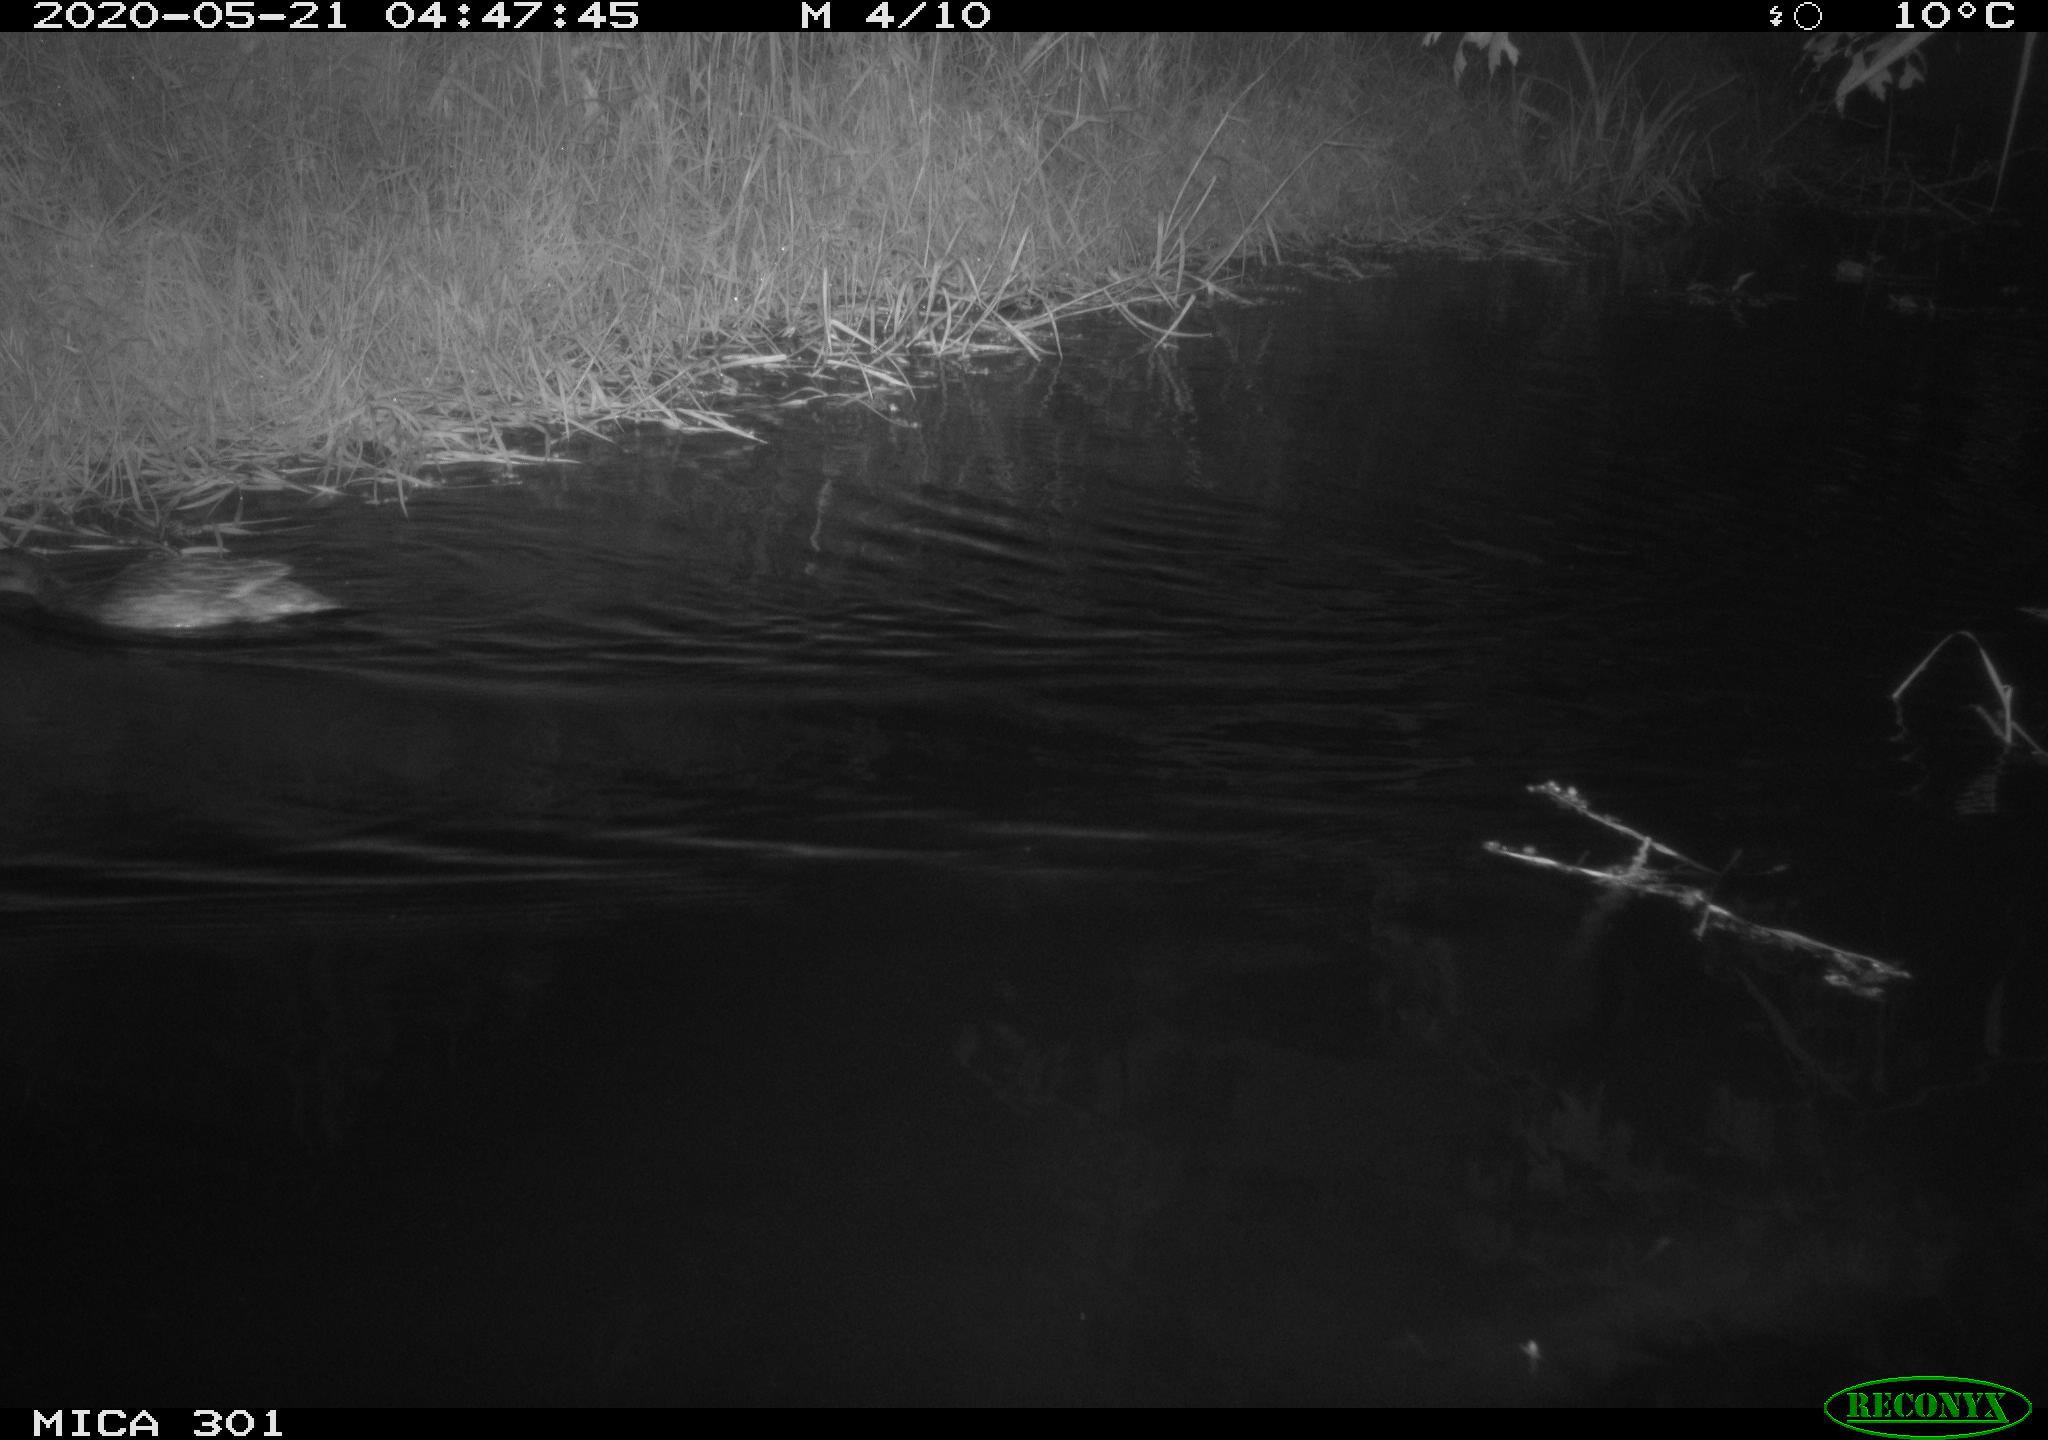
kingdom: Animalia
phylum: Chordata
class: Aves
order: Anseriformes
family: Anatidae
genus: Mareca
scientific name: Mareca strepera
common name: Gadwall
